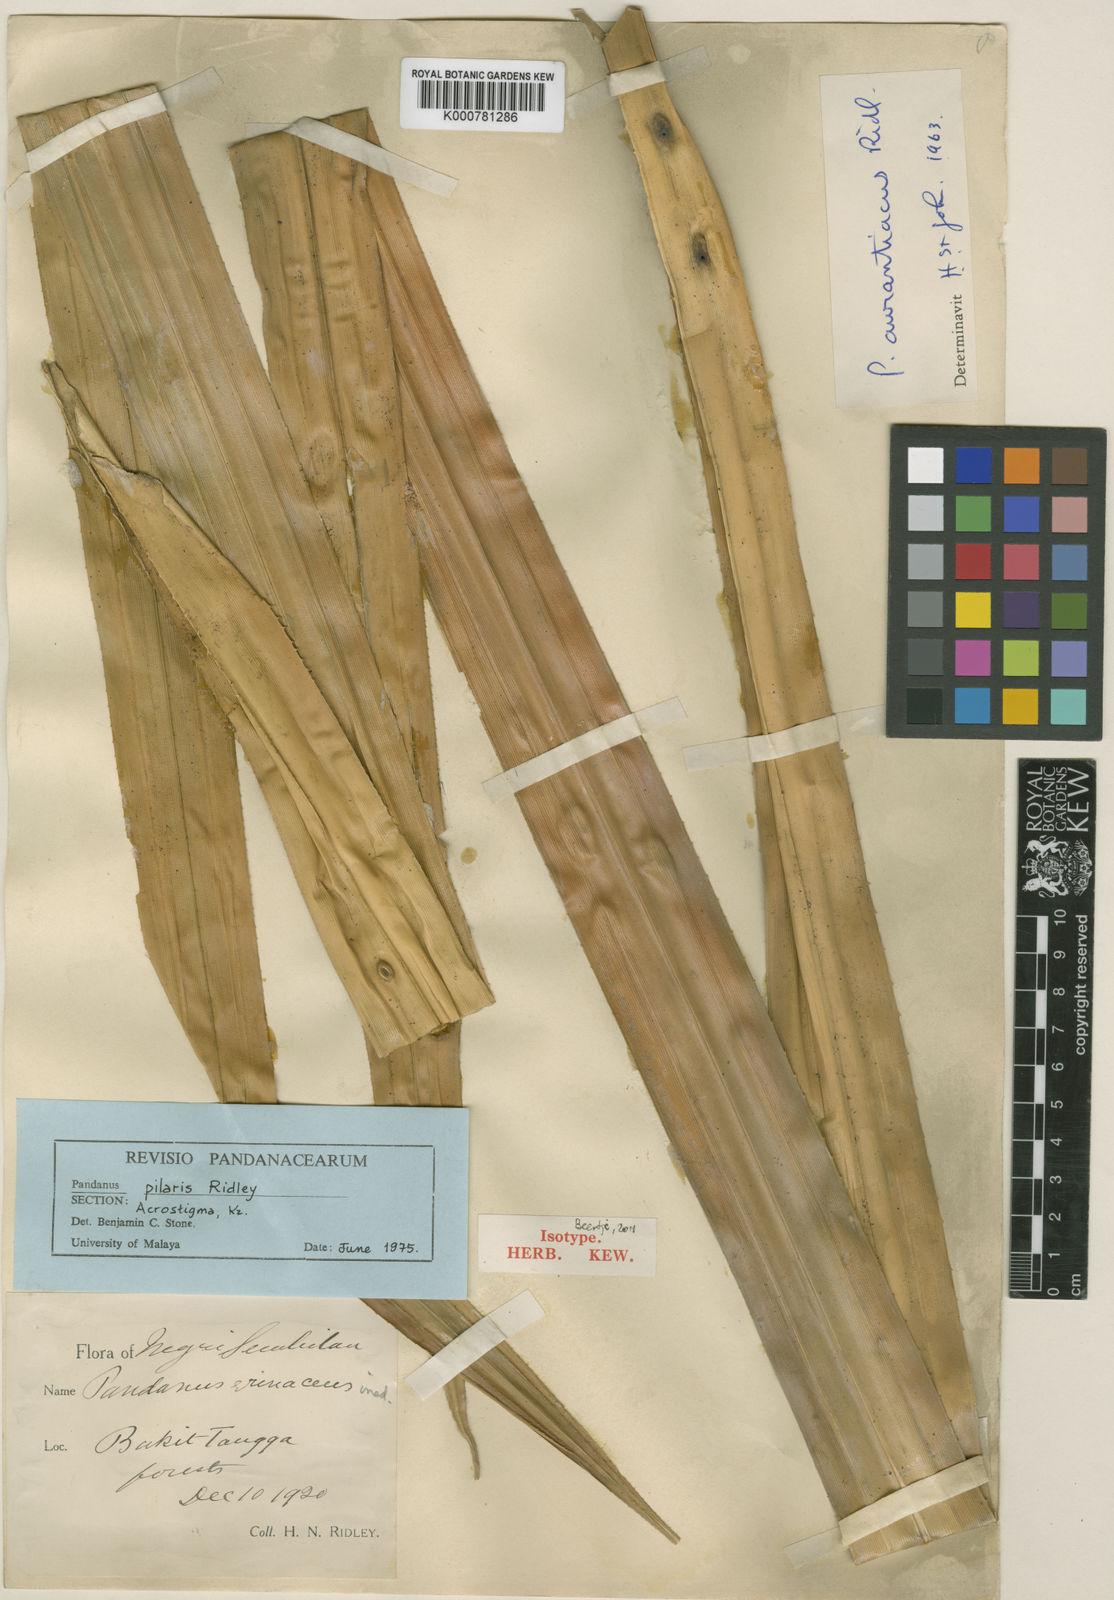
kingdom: Plantae
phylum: Tracheophyta
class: Liliopsida
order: Pandanales
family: Pandanaceae
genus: Benstonea
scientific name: Benstonea pilaris
